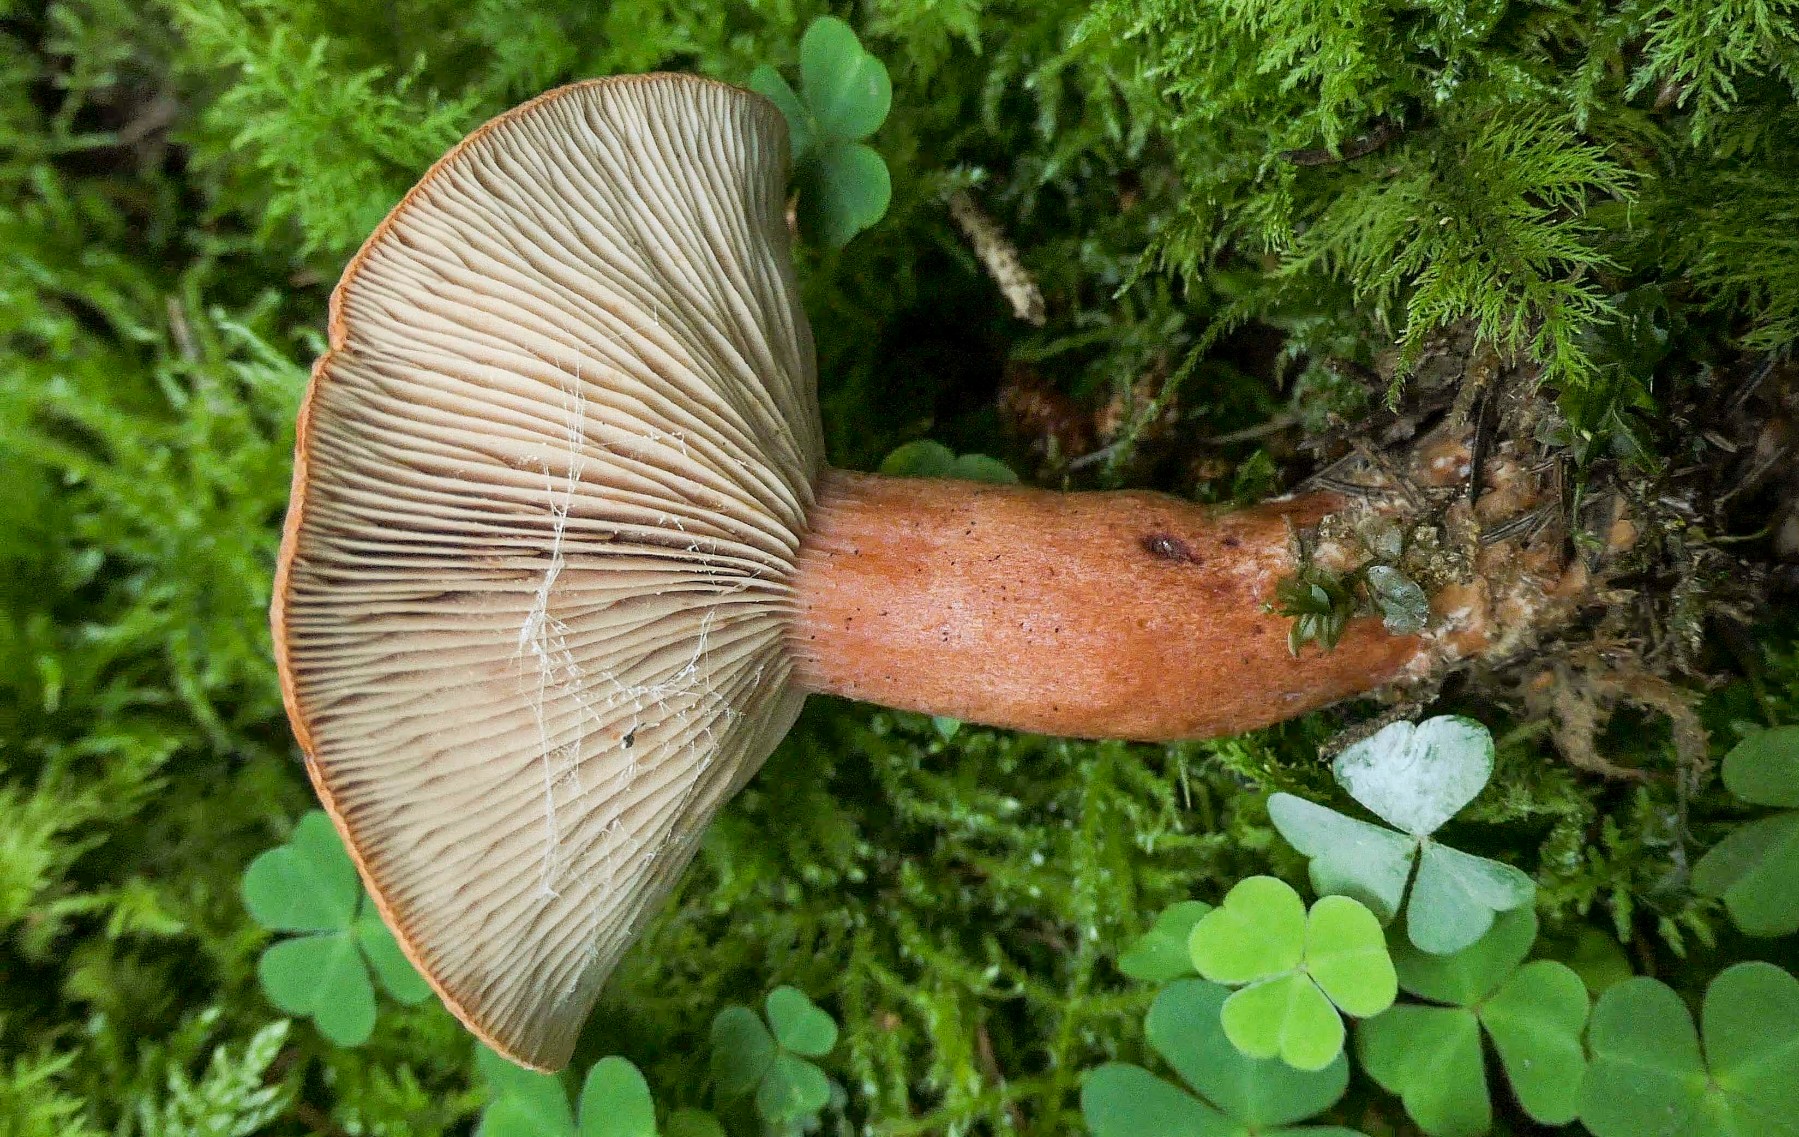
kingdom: Fungi
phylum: Basidiomycota
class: Agaricomycetes
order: Russulales
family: Russulaceae
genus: Lactarius
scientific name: Lactarius fulvissimus
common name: ræve-mælkehat
